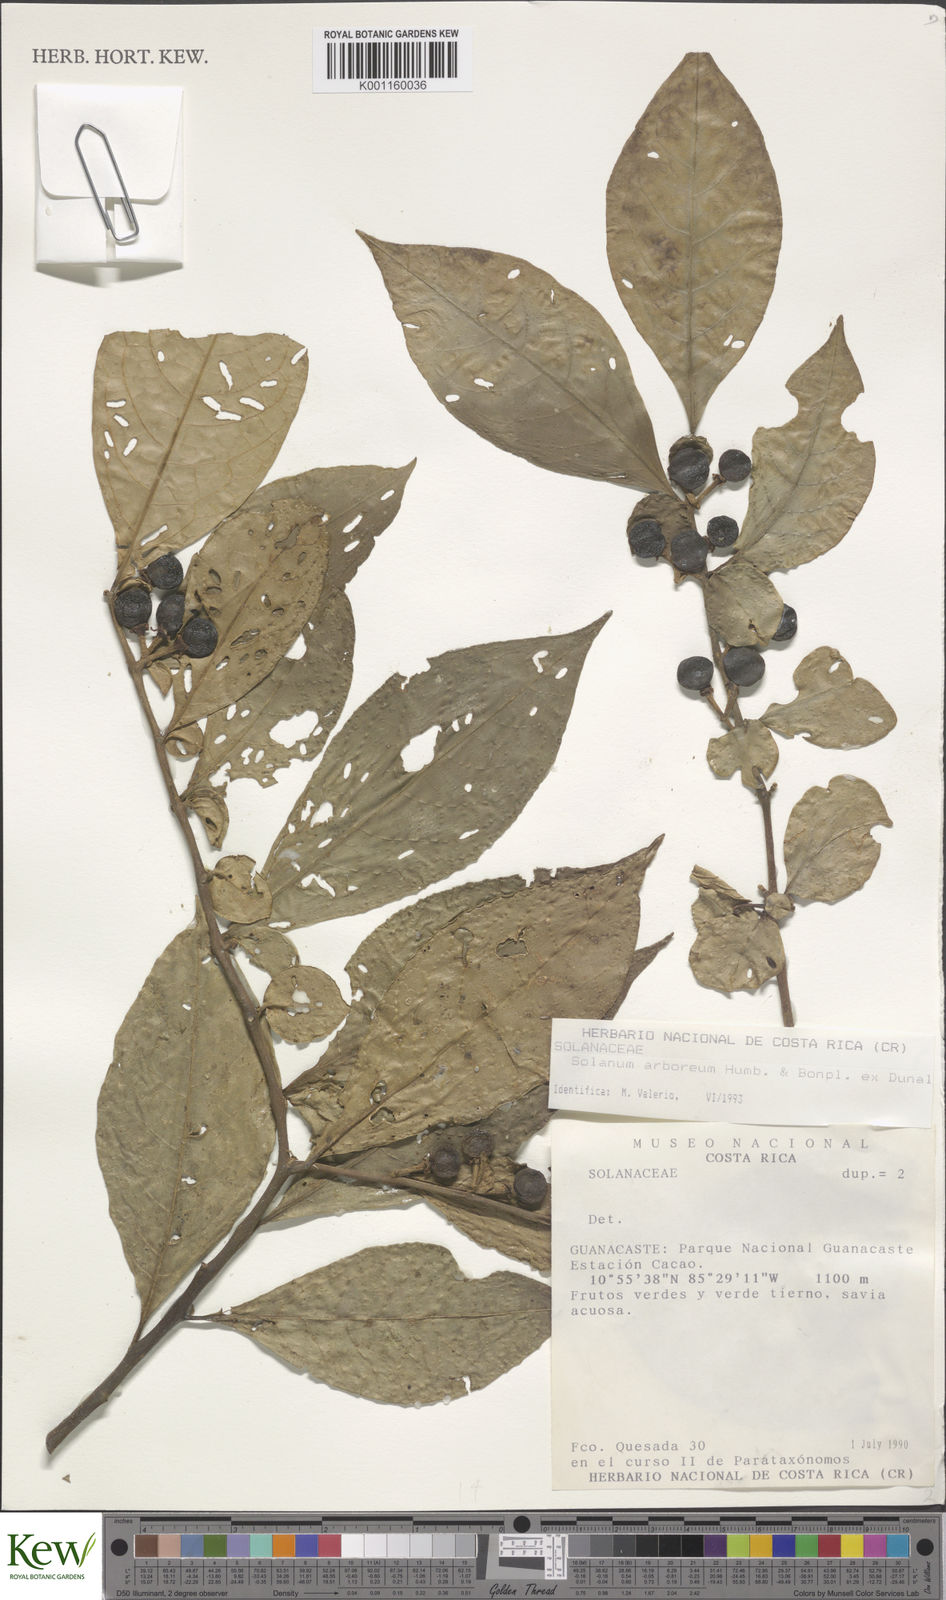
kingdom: Plantae
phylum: Tracheophyta
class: Magnoliopsida
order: Solanales
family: Solanaceae
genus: Solanum
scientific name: Solanum arboreum
